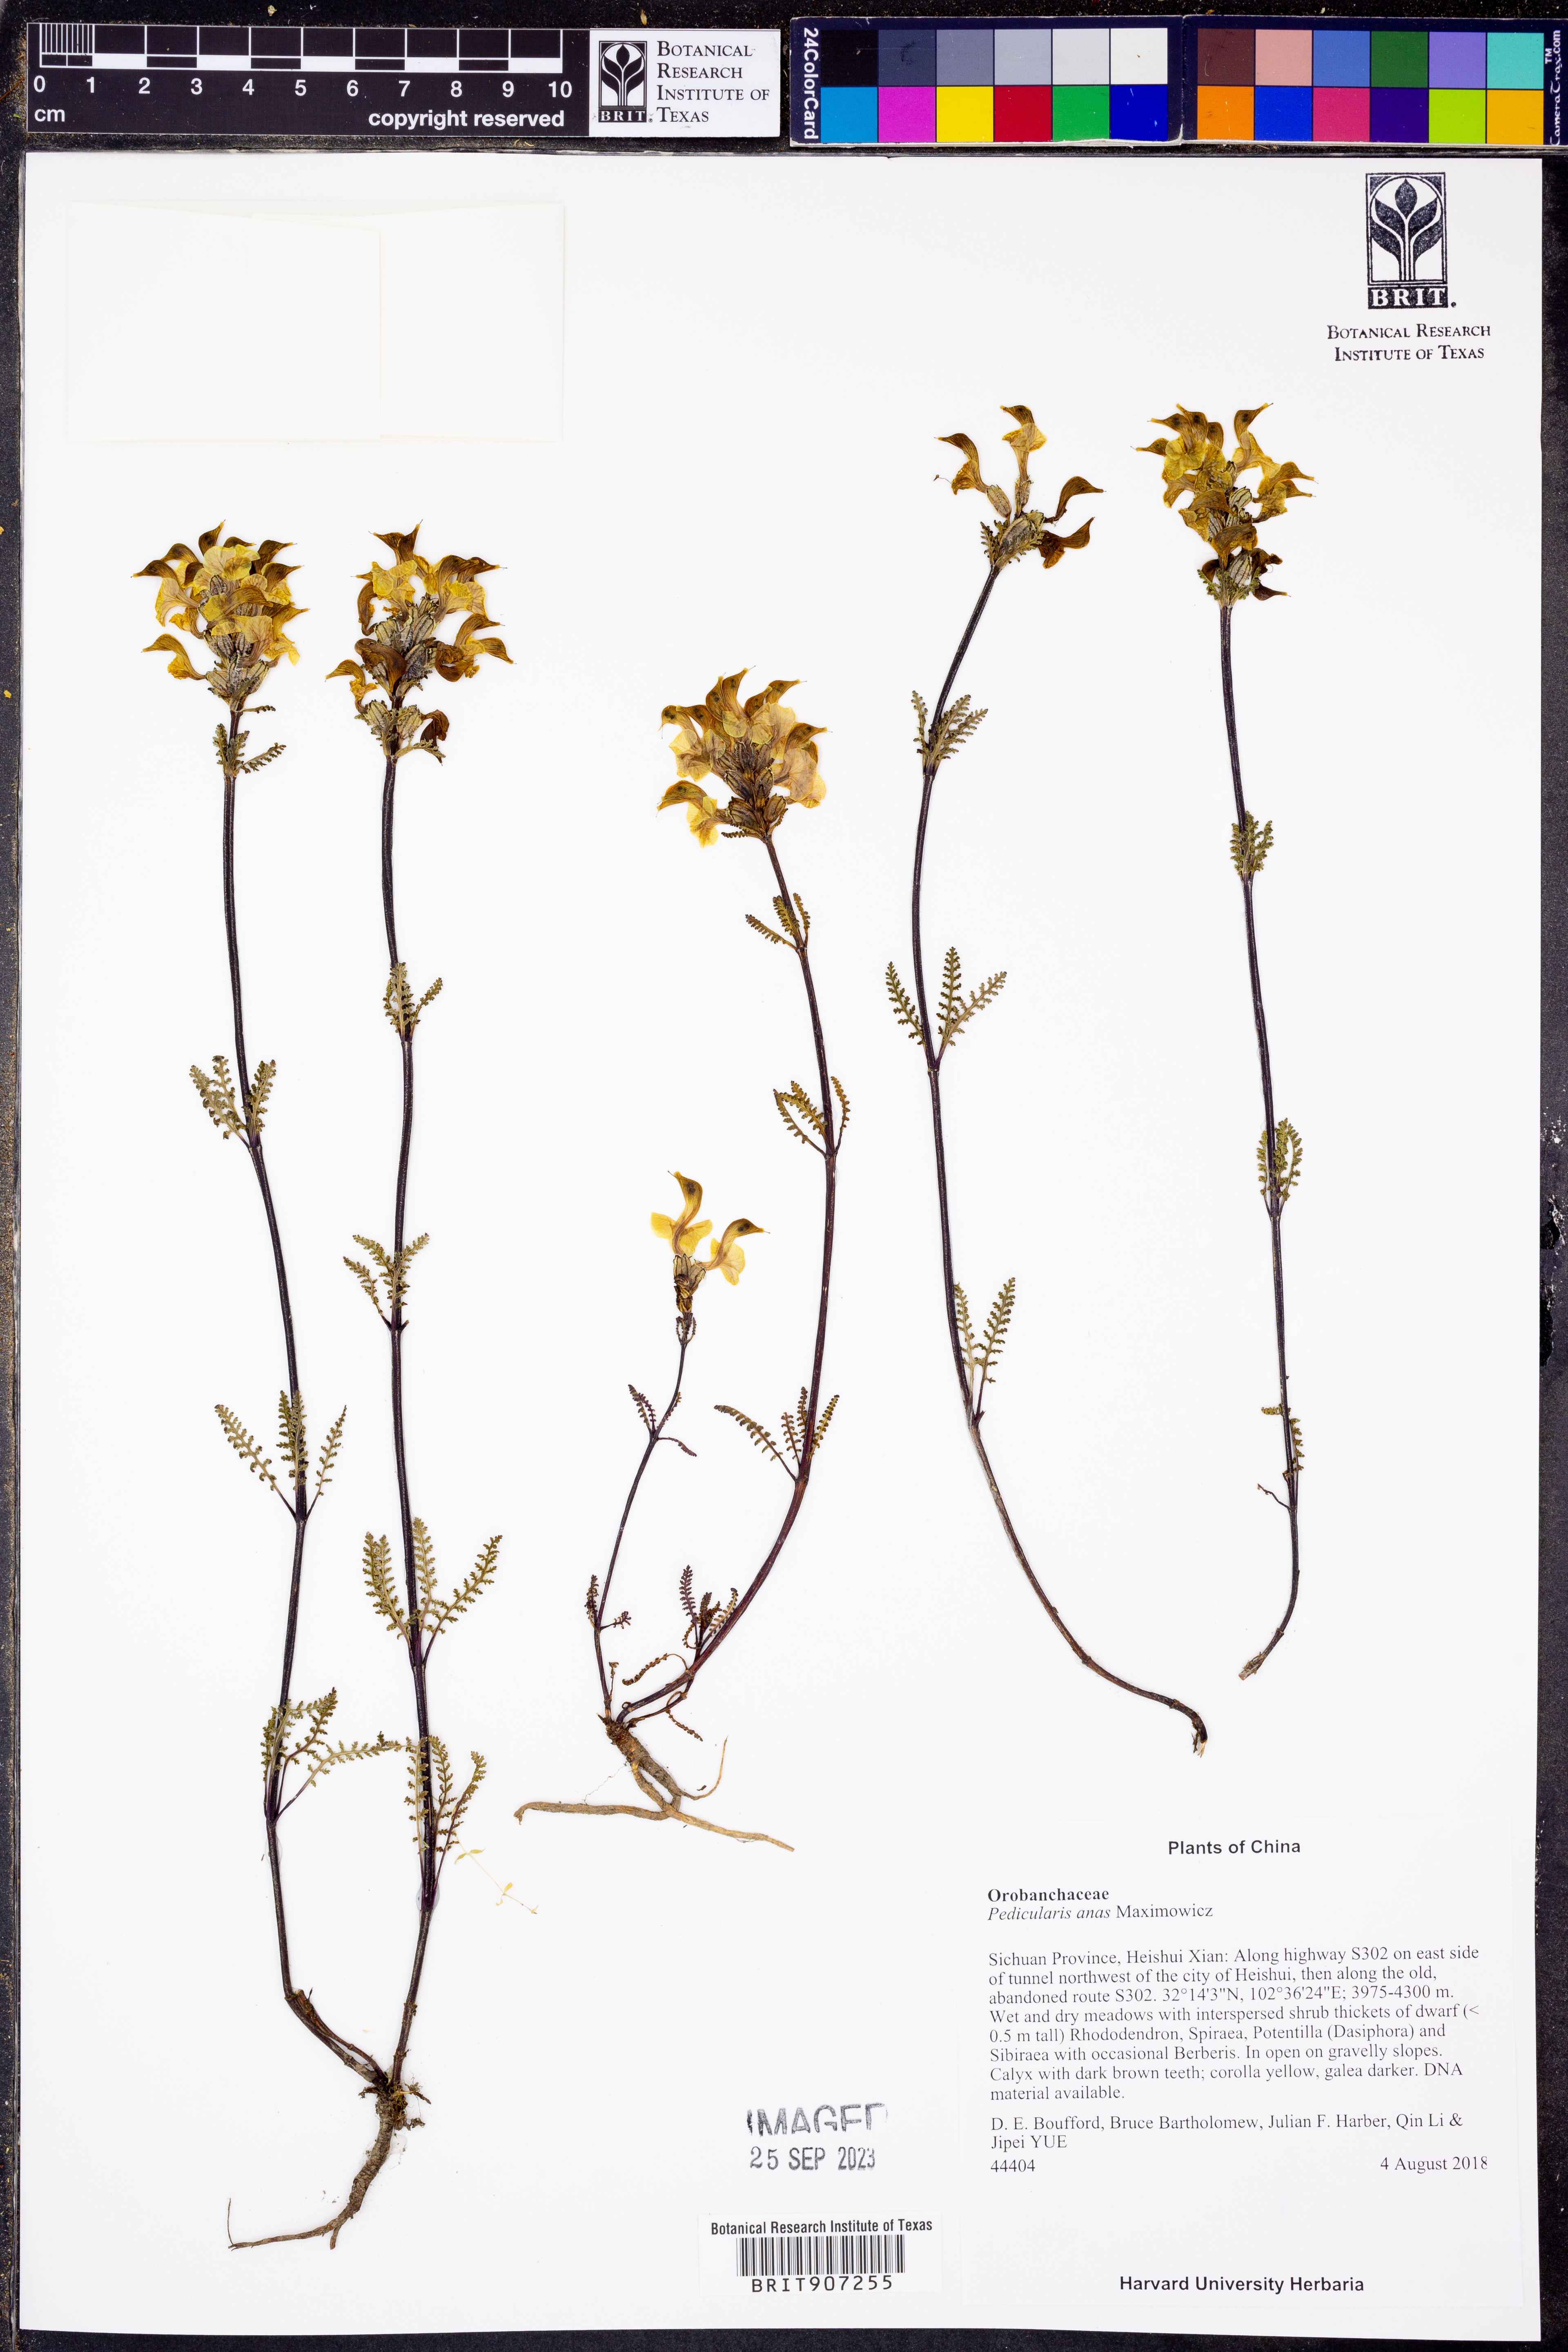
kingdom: Plantae
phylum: Tracheophyta
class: Magnoliopsida
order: Lamiales
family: Orobanchaceae
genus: Pedicularis
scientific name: Pedicularis anas
